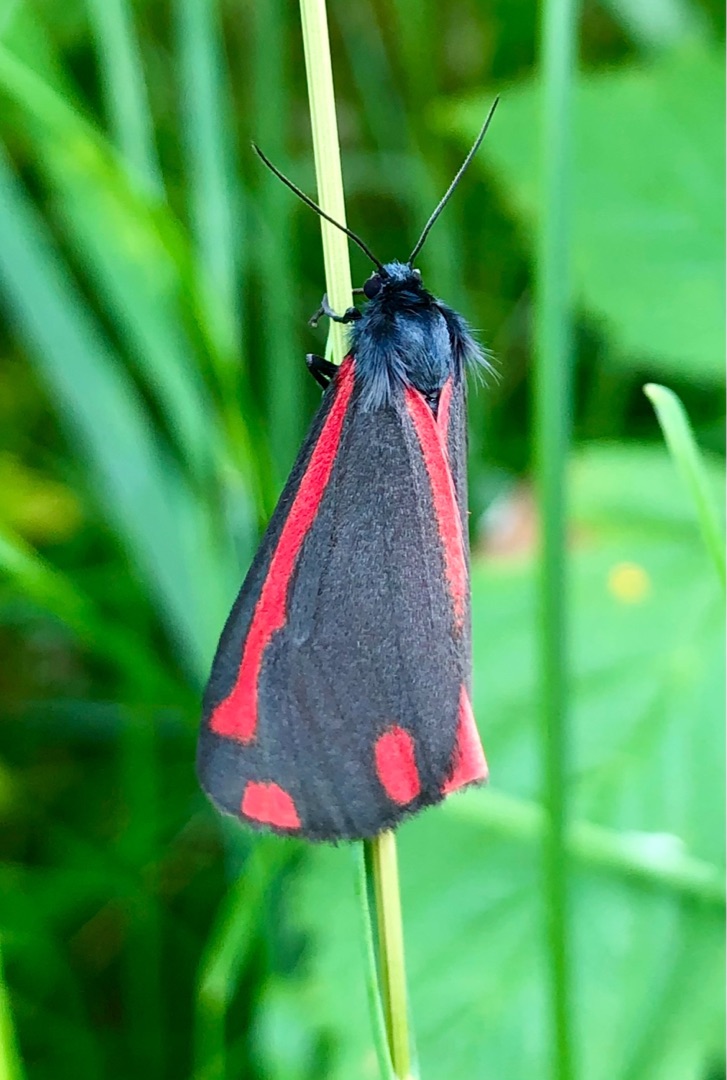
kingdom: Animalia
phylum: Arthropoda
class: Insecta
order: Lepidoptera
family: Erebidae
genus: Tyria
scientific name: Tyria jacobaeae
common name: Blodplet
